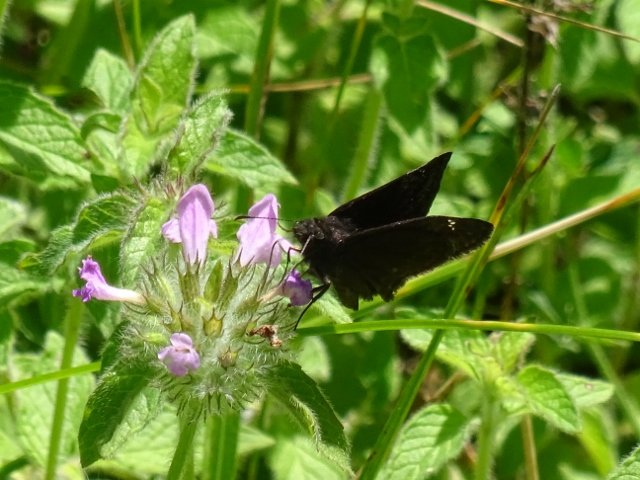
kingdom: Animalia
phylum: Arthropoda
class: Insecta
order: Lepidoptera
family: Hesperiidae
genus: Gesta
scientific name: Gesta
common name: Wild Indigo Duskywing
